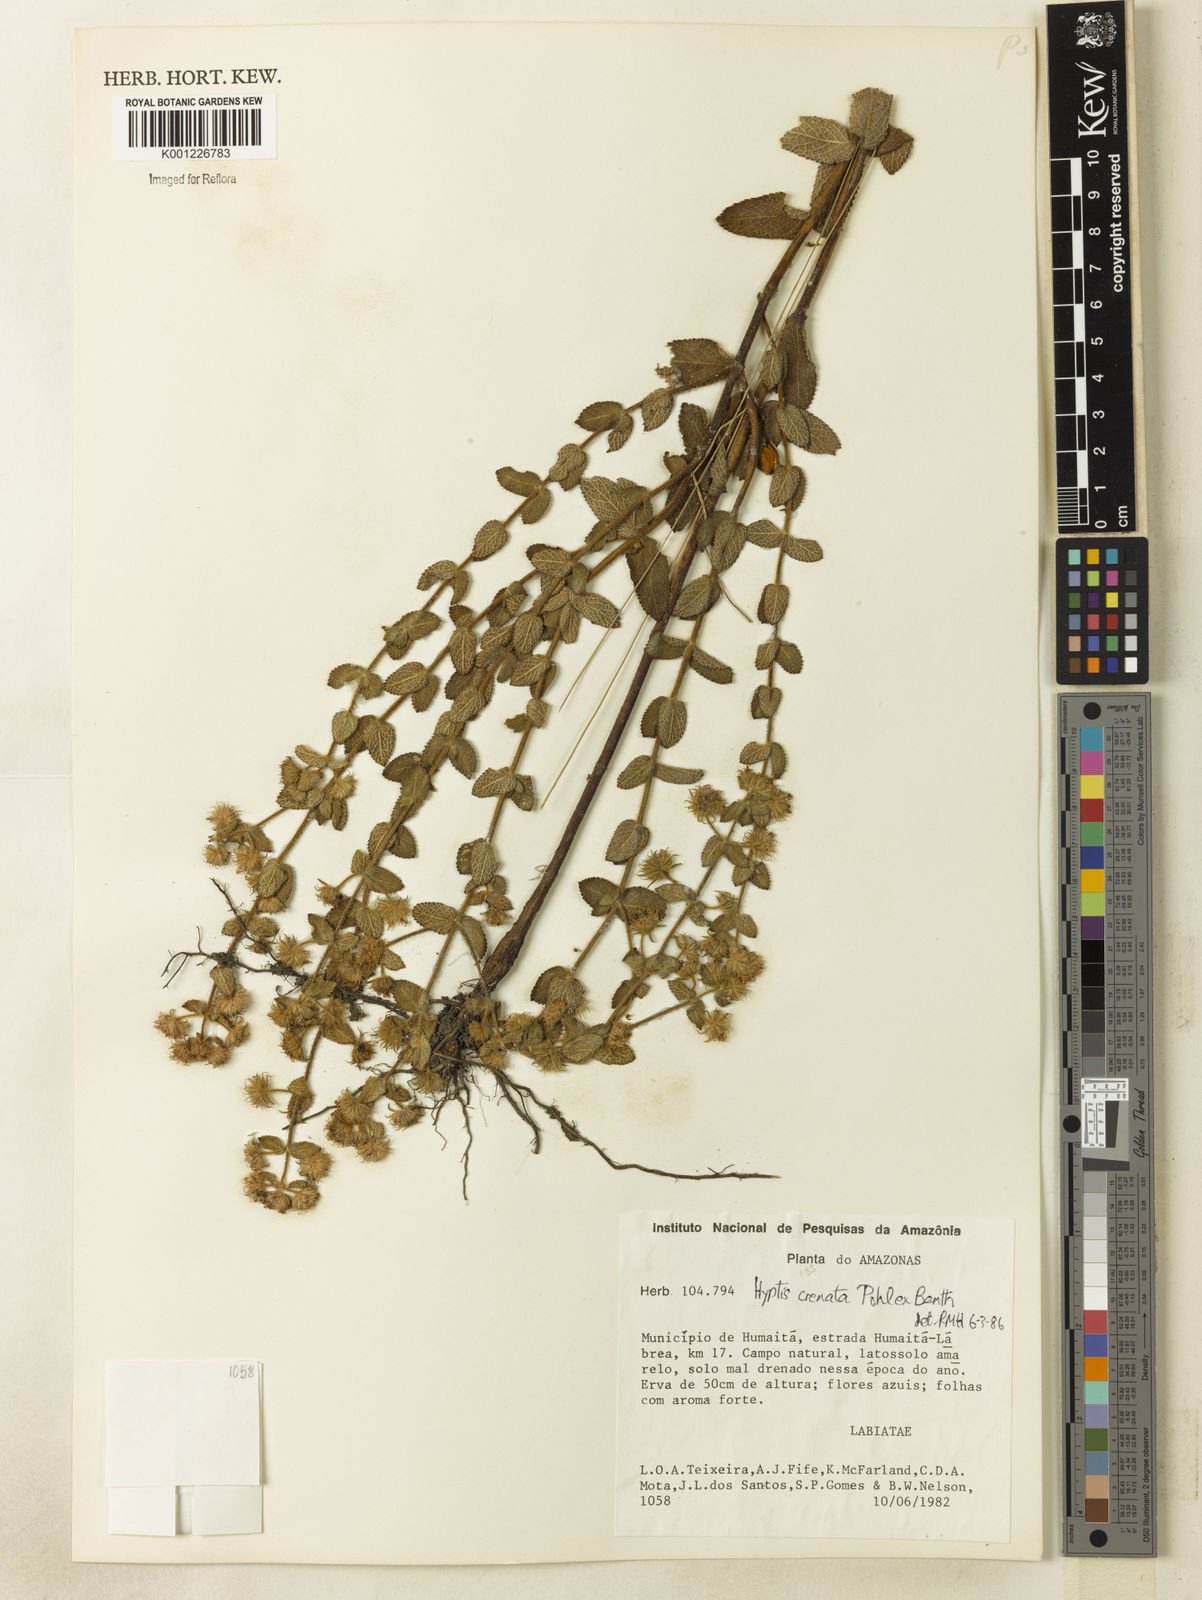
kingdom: Plantae
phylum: Tracheophyta
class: Magnoliopsida
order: Lamiales
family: Lamiaceae
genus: Hyptis
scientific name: Hyptis crenata
